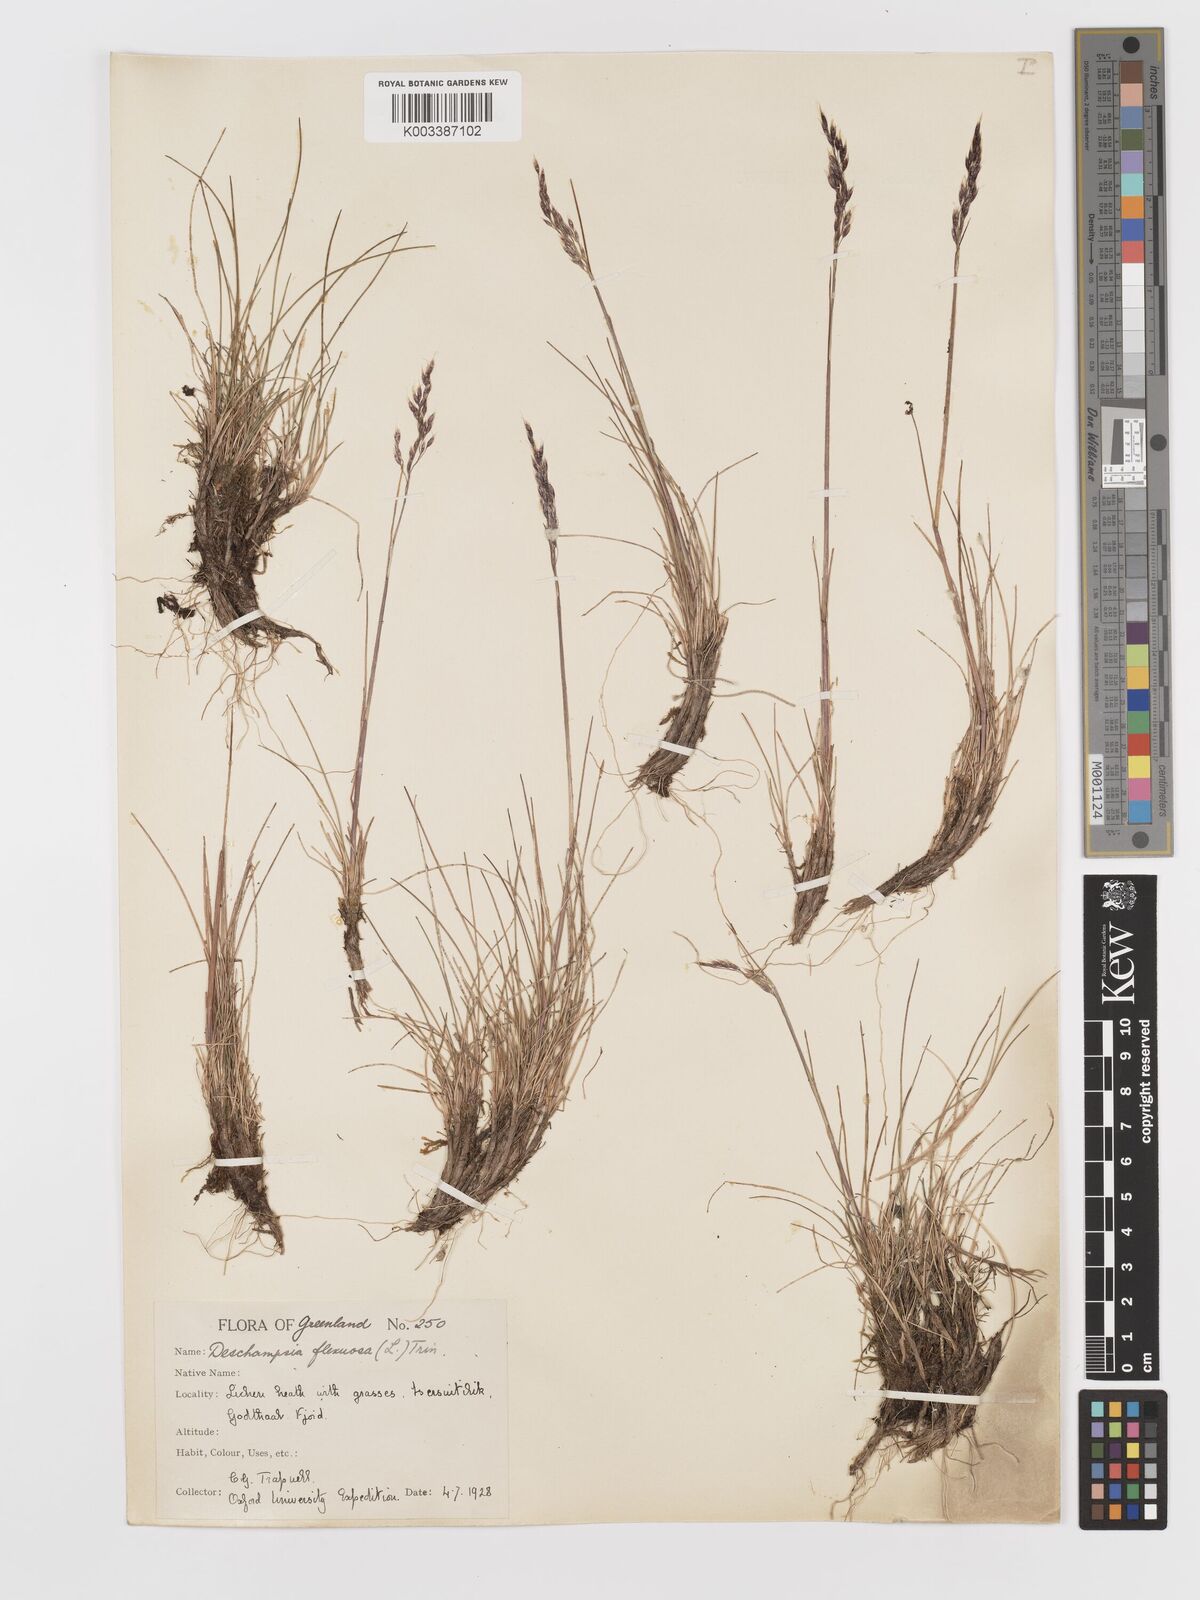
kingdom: Plantae
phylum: Tracheophyta
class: Liliopsida
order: Poales
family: Poaceae
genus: Avenella
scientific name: Avenella flexuosa
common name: Wavy hairgrass
